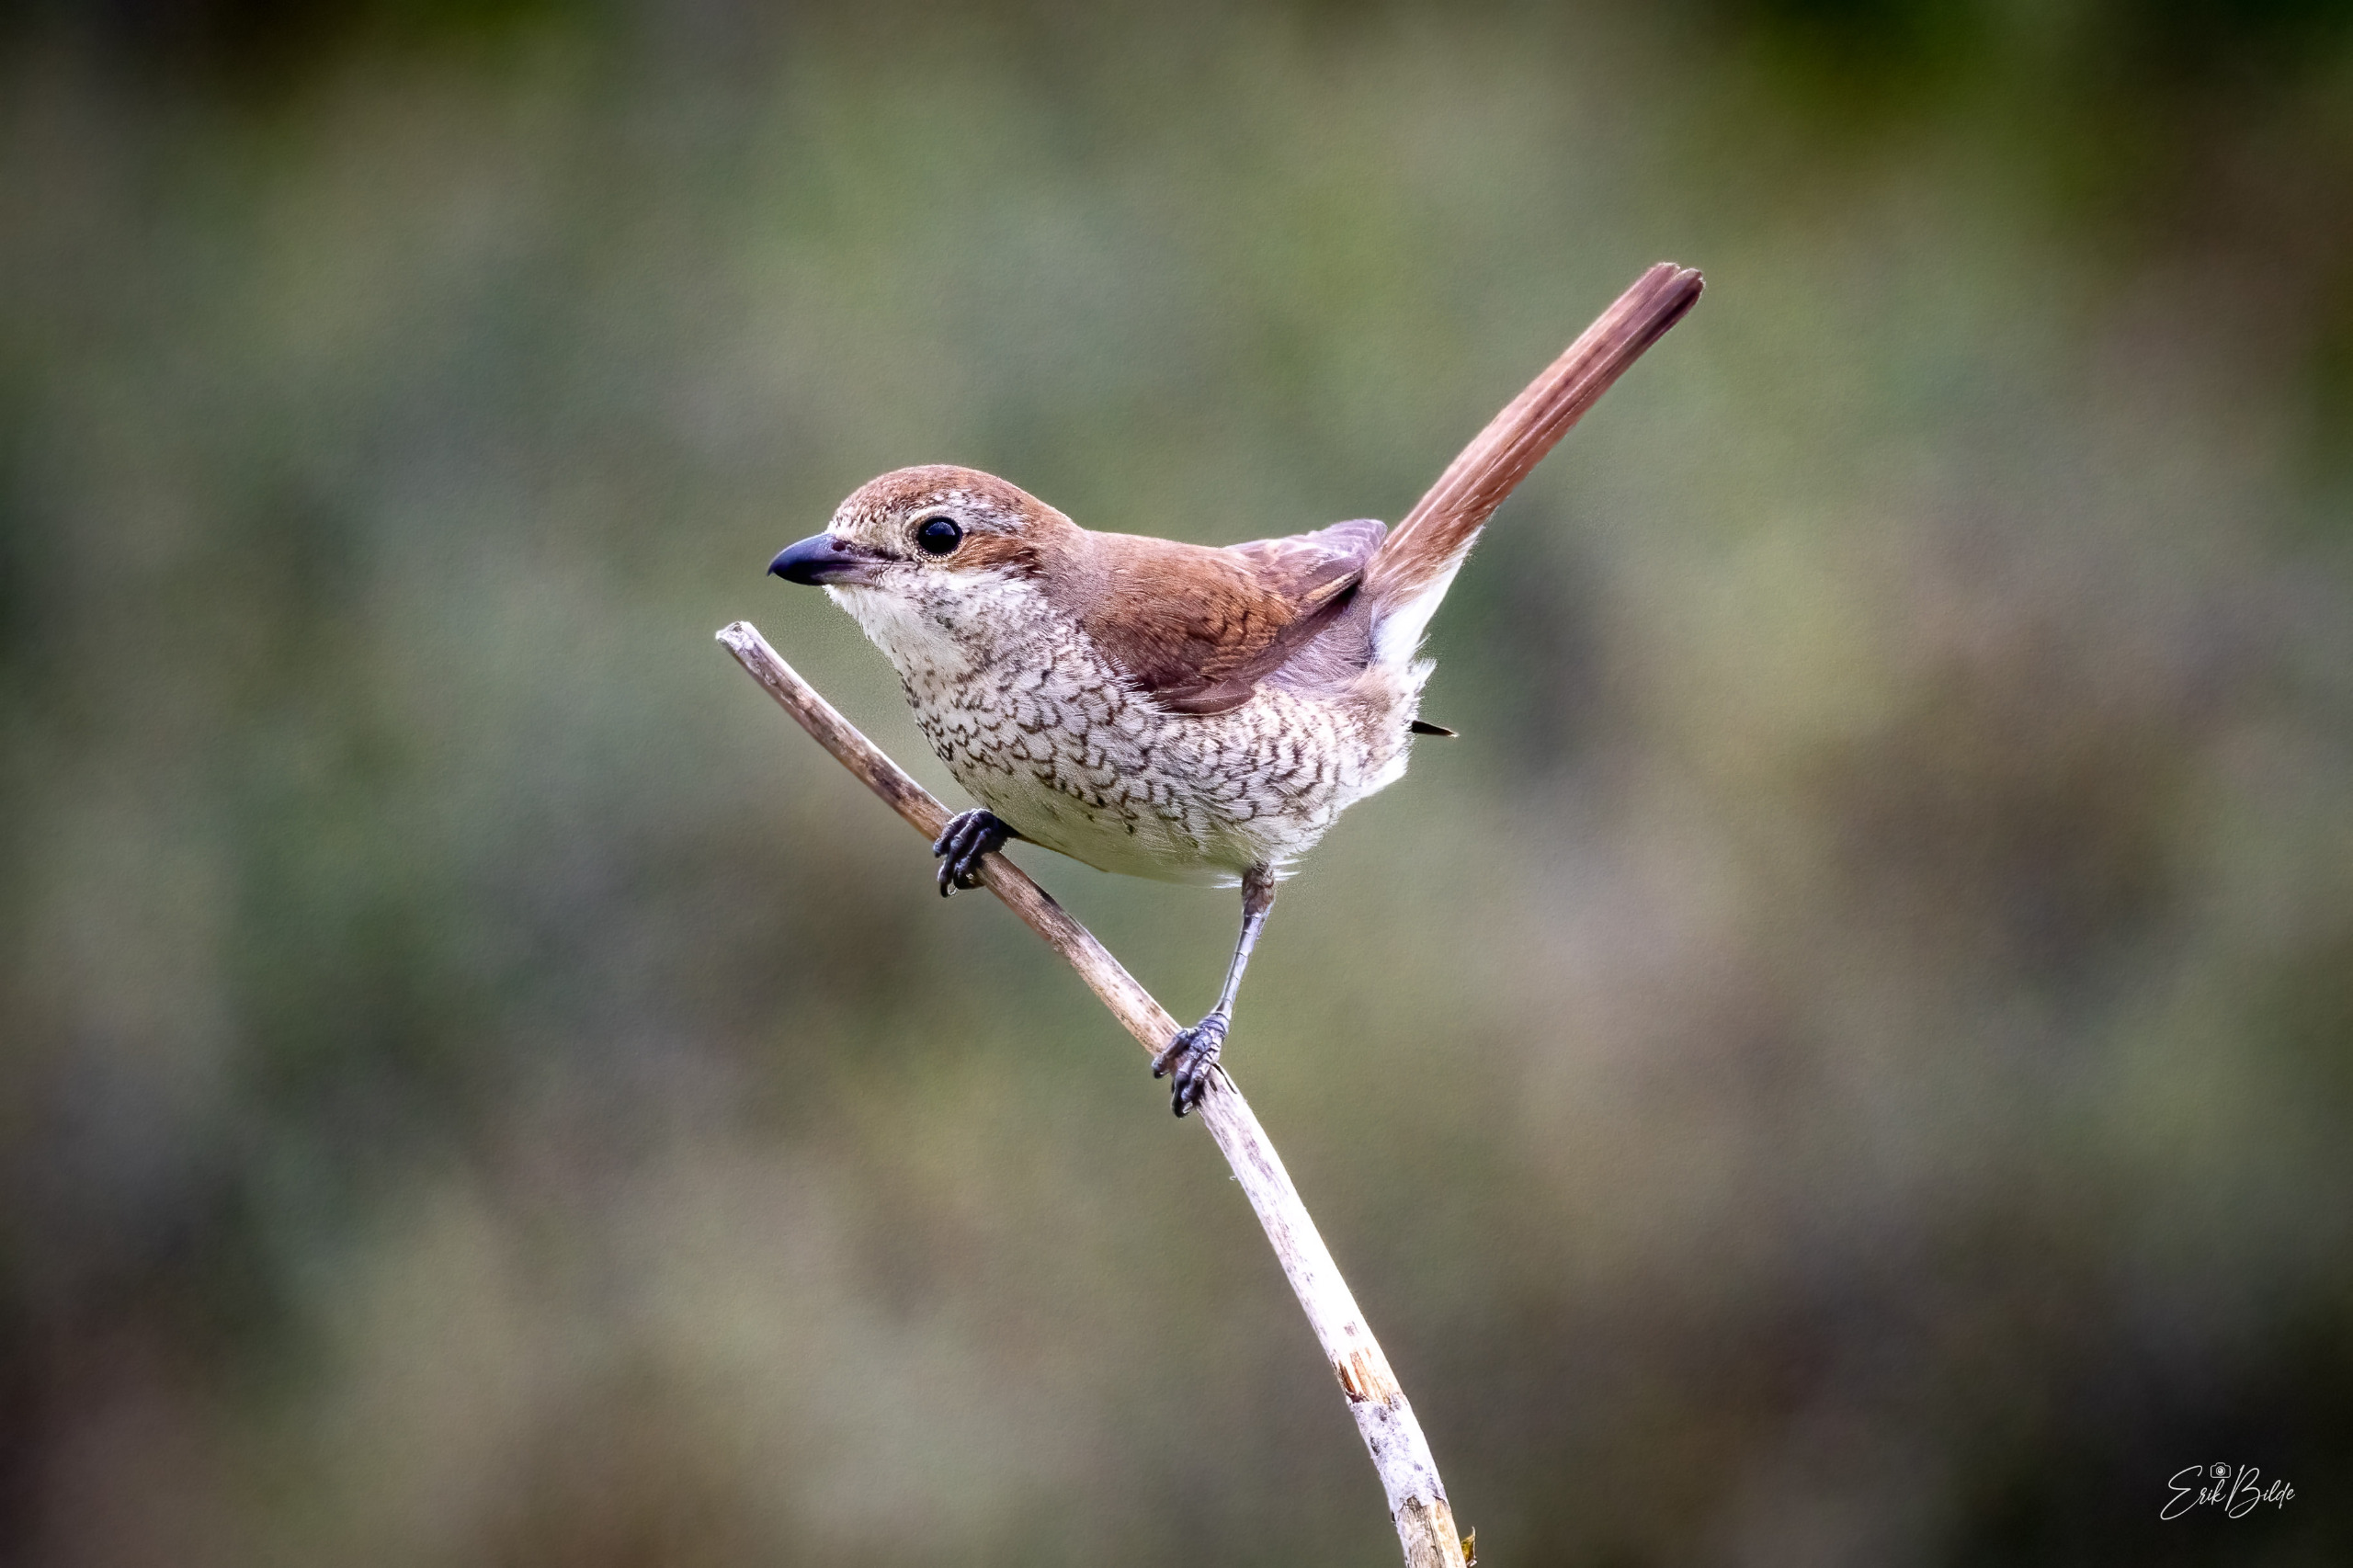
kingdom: Animalia
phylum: Chordata
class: Aves
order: Passeriformes
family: Laniidae
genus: Lanius
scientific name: Lanius collurio
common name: Rødrygget tornskade
